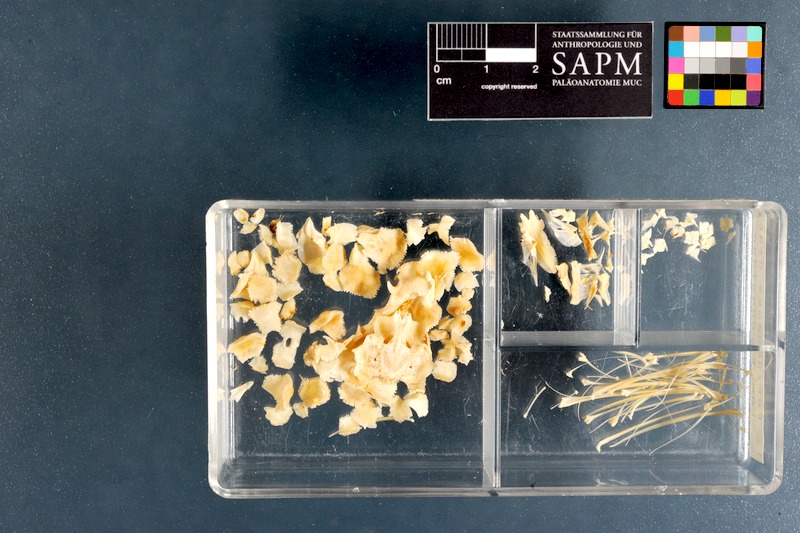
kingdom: Animalia
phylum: Chordata
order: Gasterosteiformes
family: Pegasidae
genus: Eurypegasus
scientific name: Eurypegasus draconis
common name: Short dragonfish
